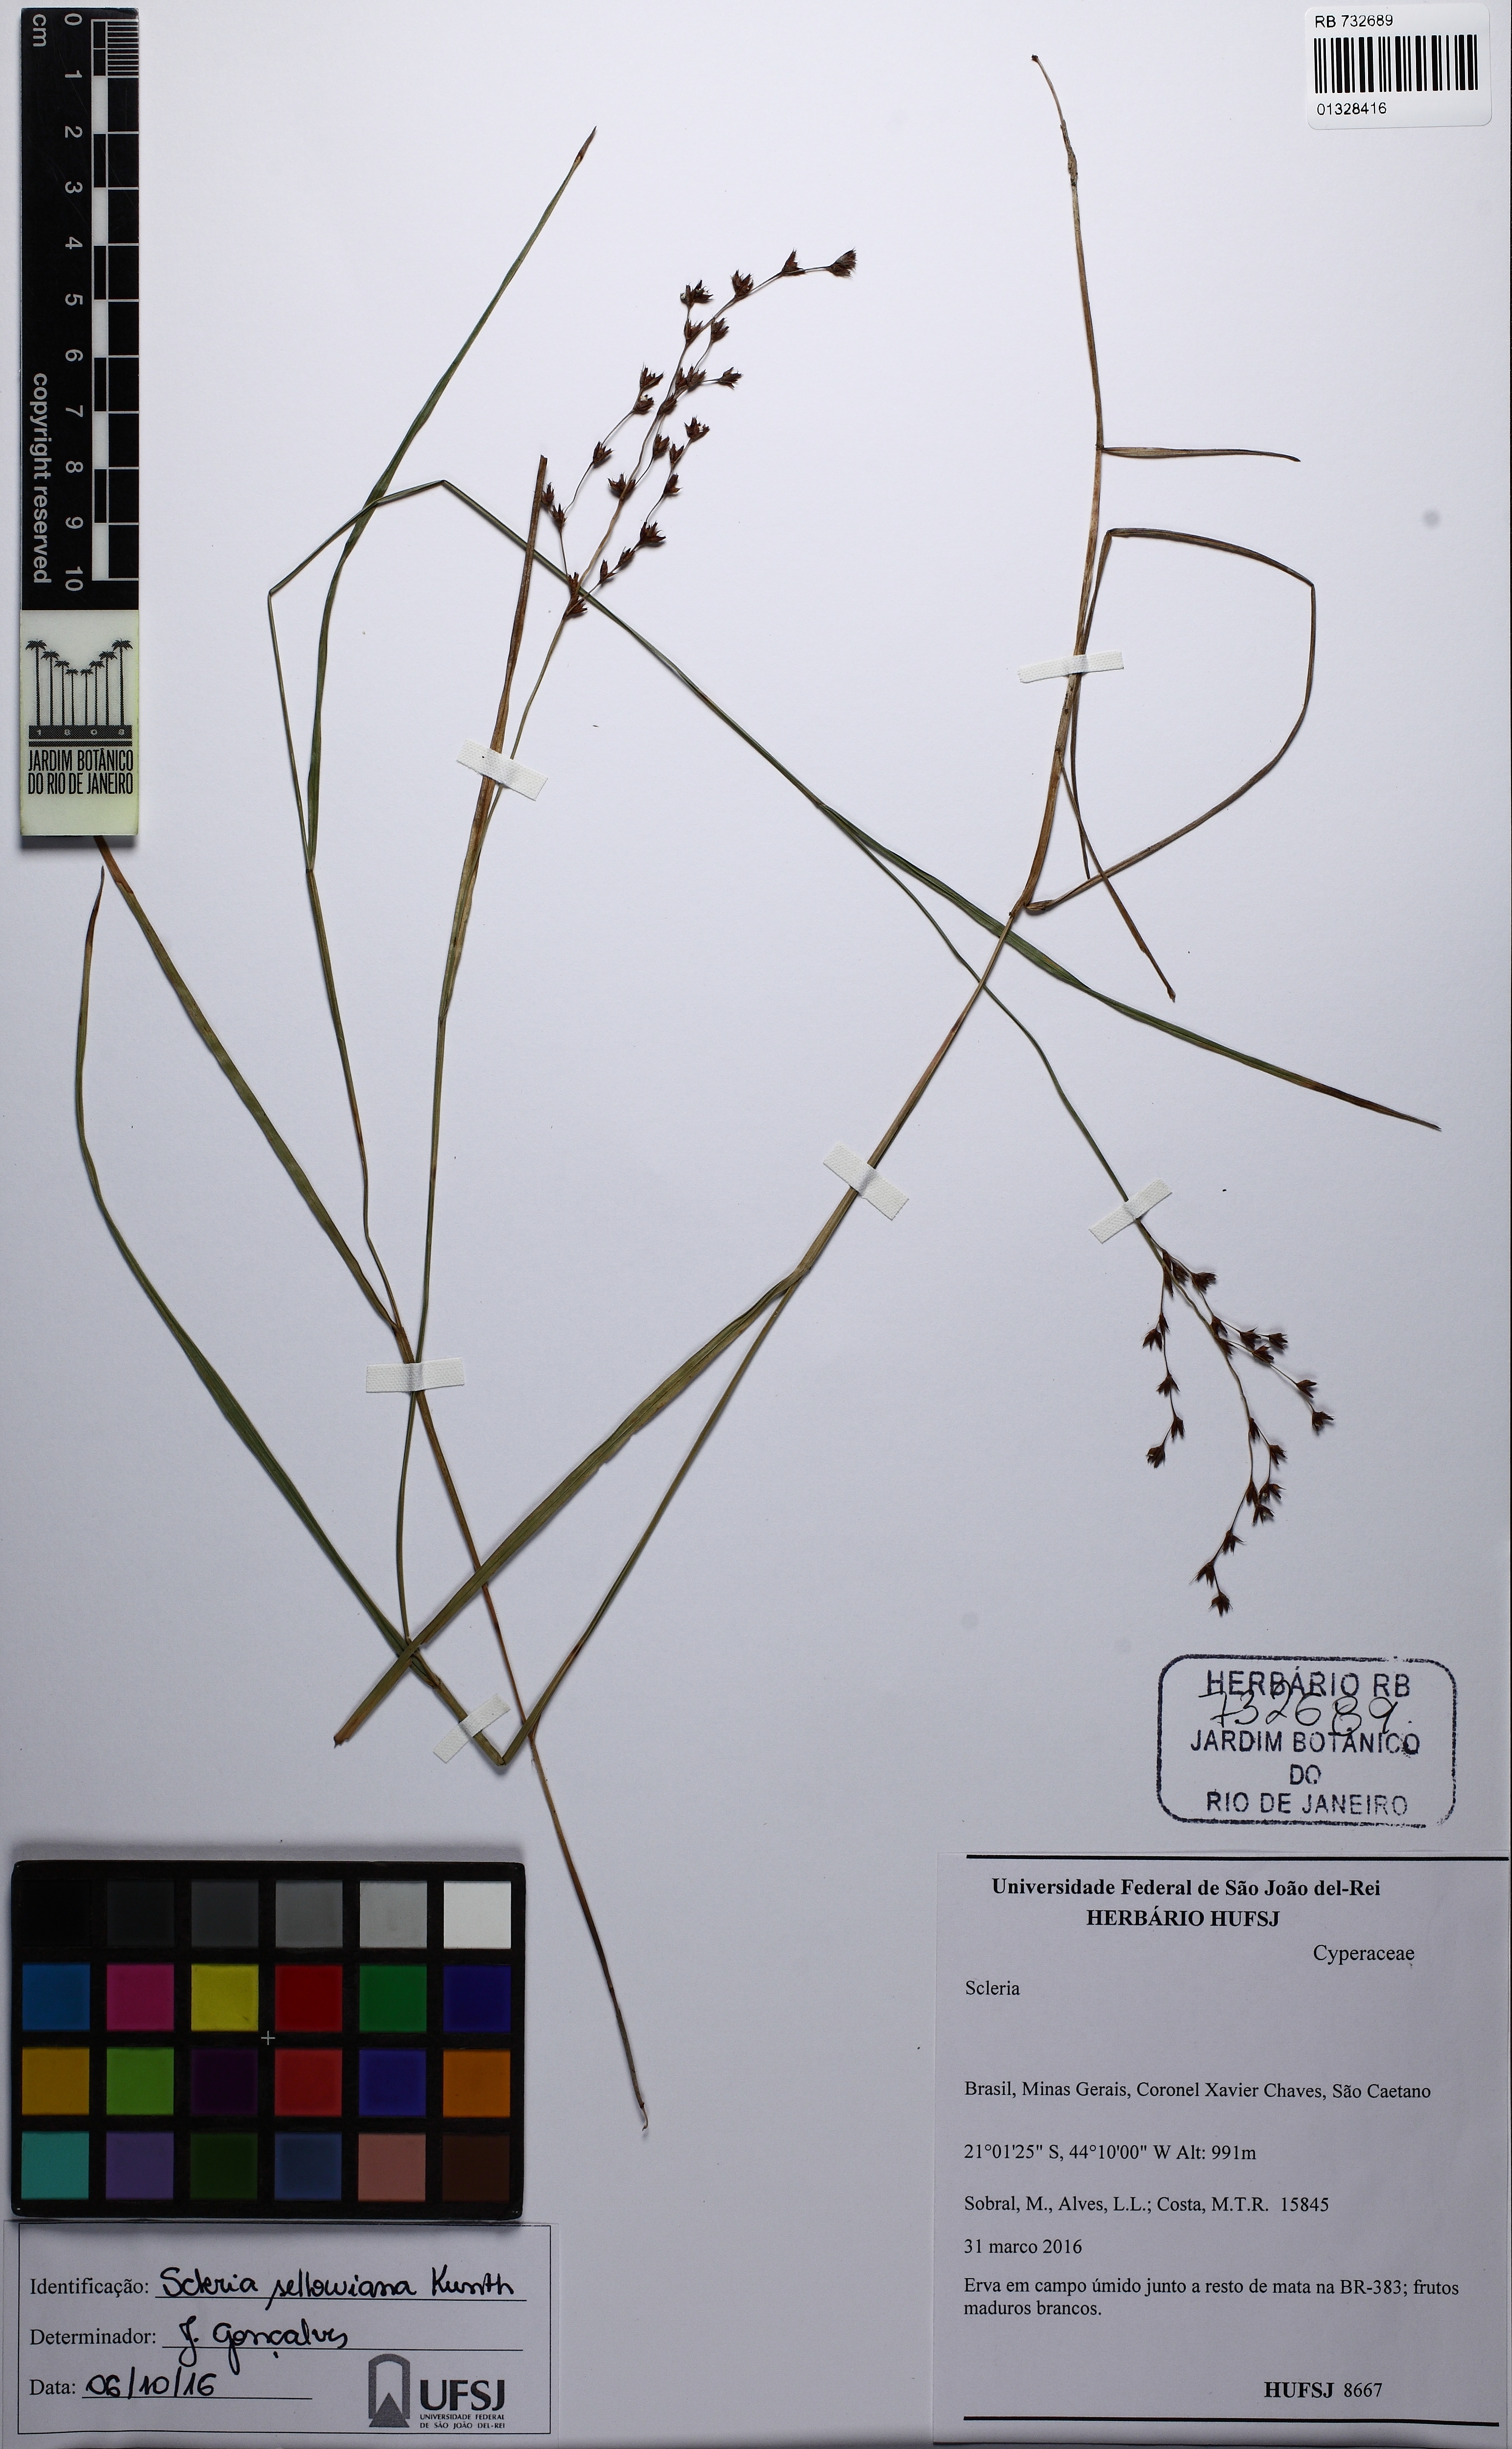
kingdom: Plantae
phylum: Tracheophyta
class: Liliopsida
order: Poales
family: Cyperaceae
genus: Scleria
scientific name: Scleria spicata
